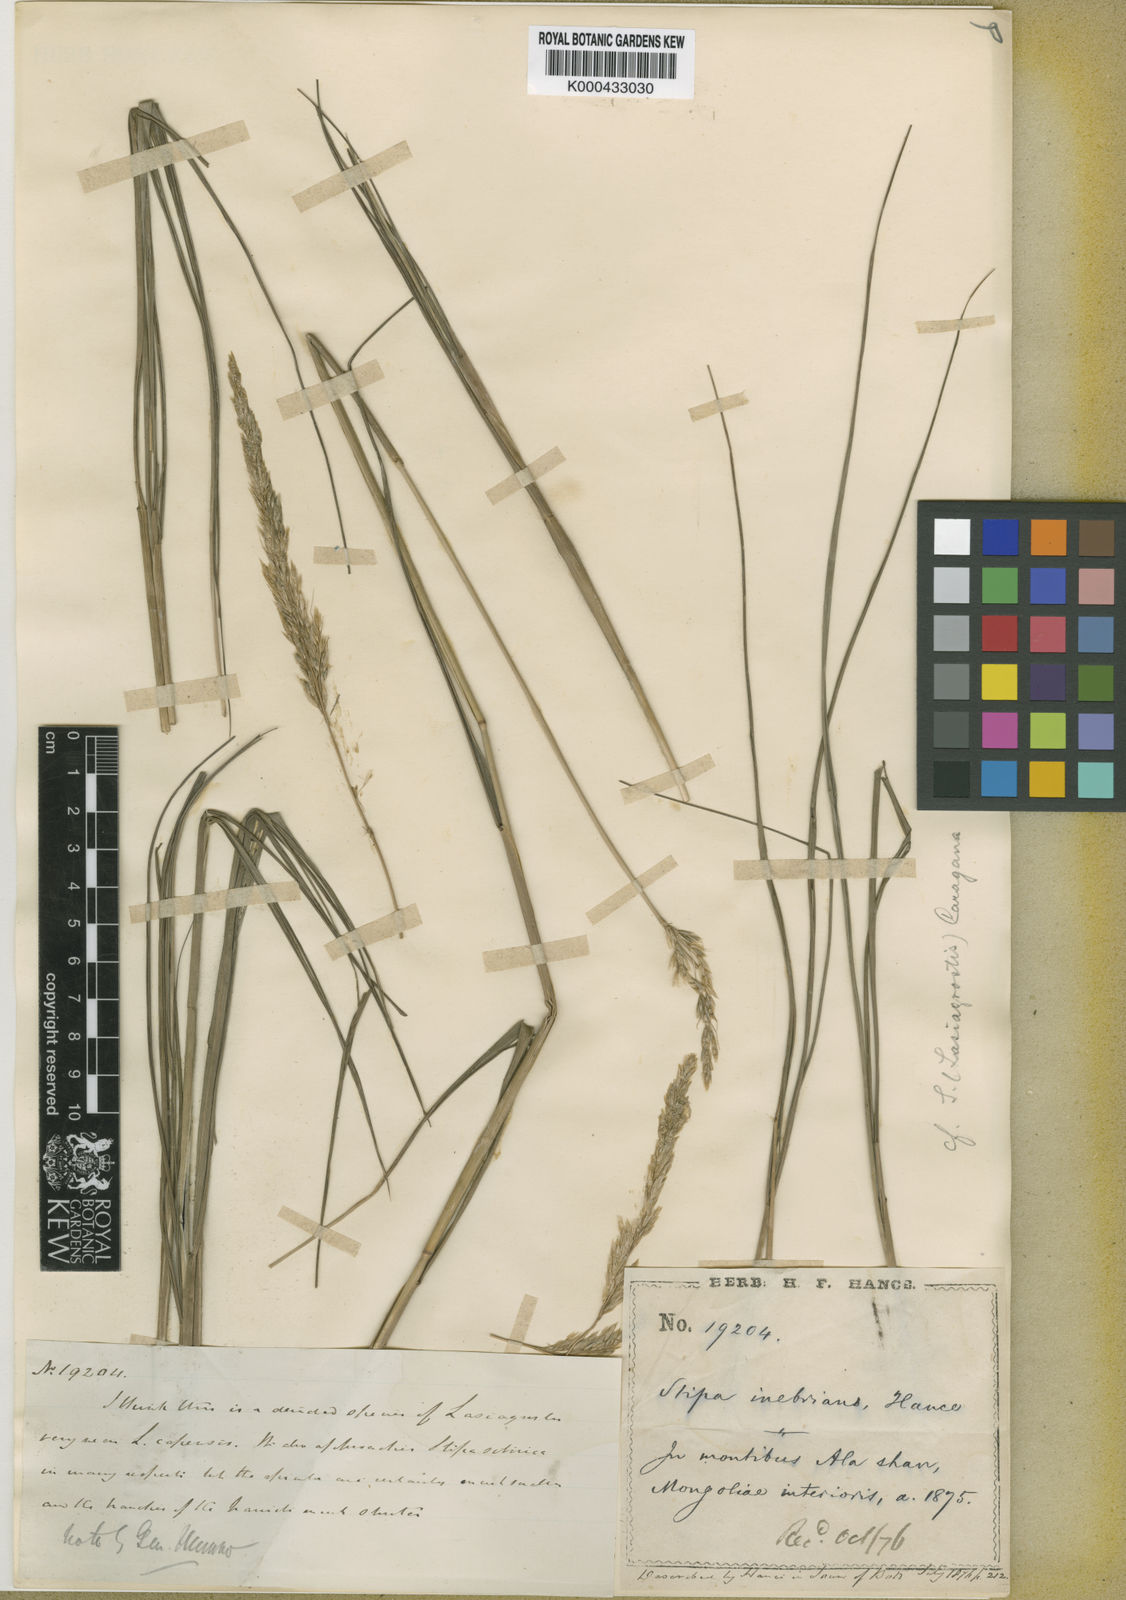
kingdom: Plantae
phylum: Tracheophyta
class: Liliopsida
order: Poales
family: Poaceae
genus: Achnatherum
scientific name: Achnatherum inebrians
